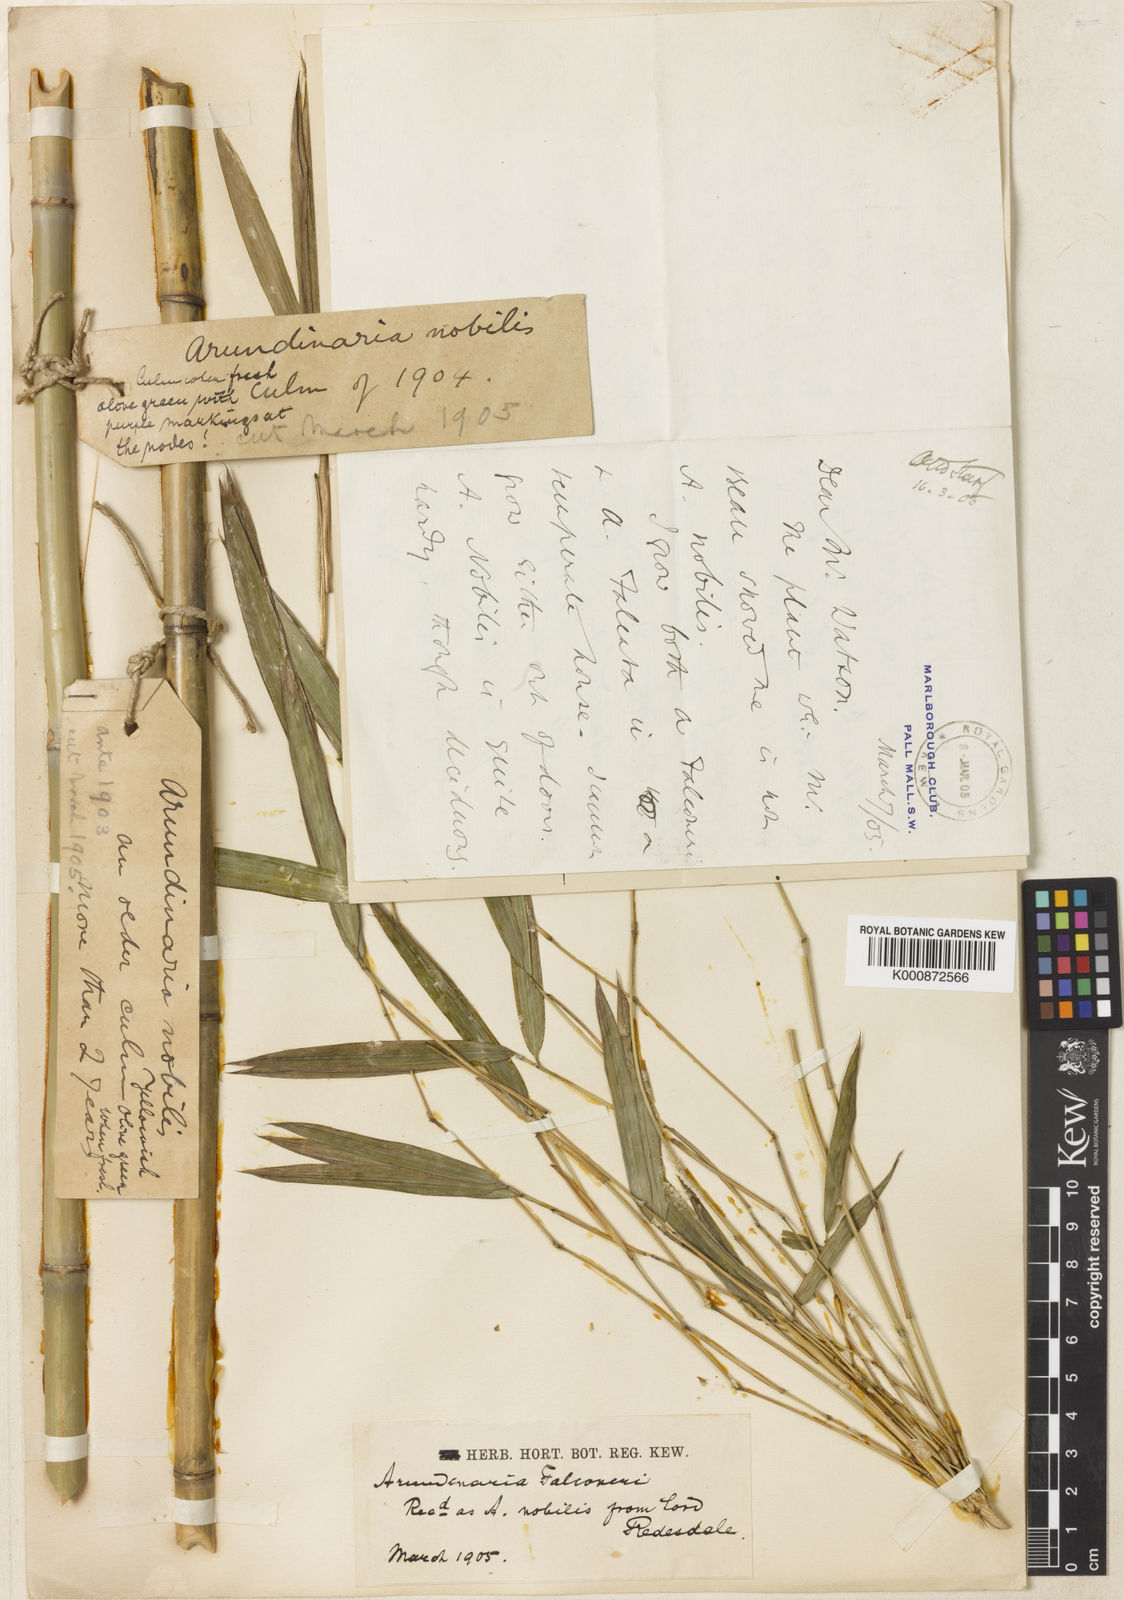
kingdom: Plantae
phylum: Tracheophyta
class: Liliopsida
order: Poales
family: Poaceae
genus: Himalayacalamus
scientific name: Himalayacalamus falconeri
